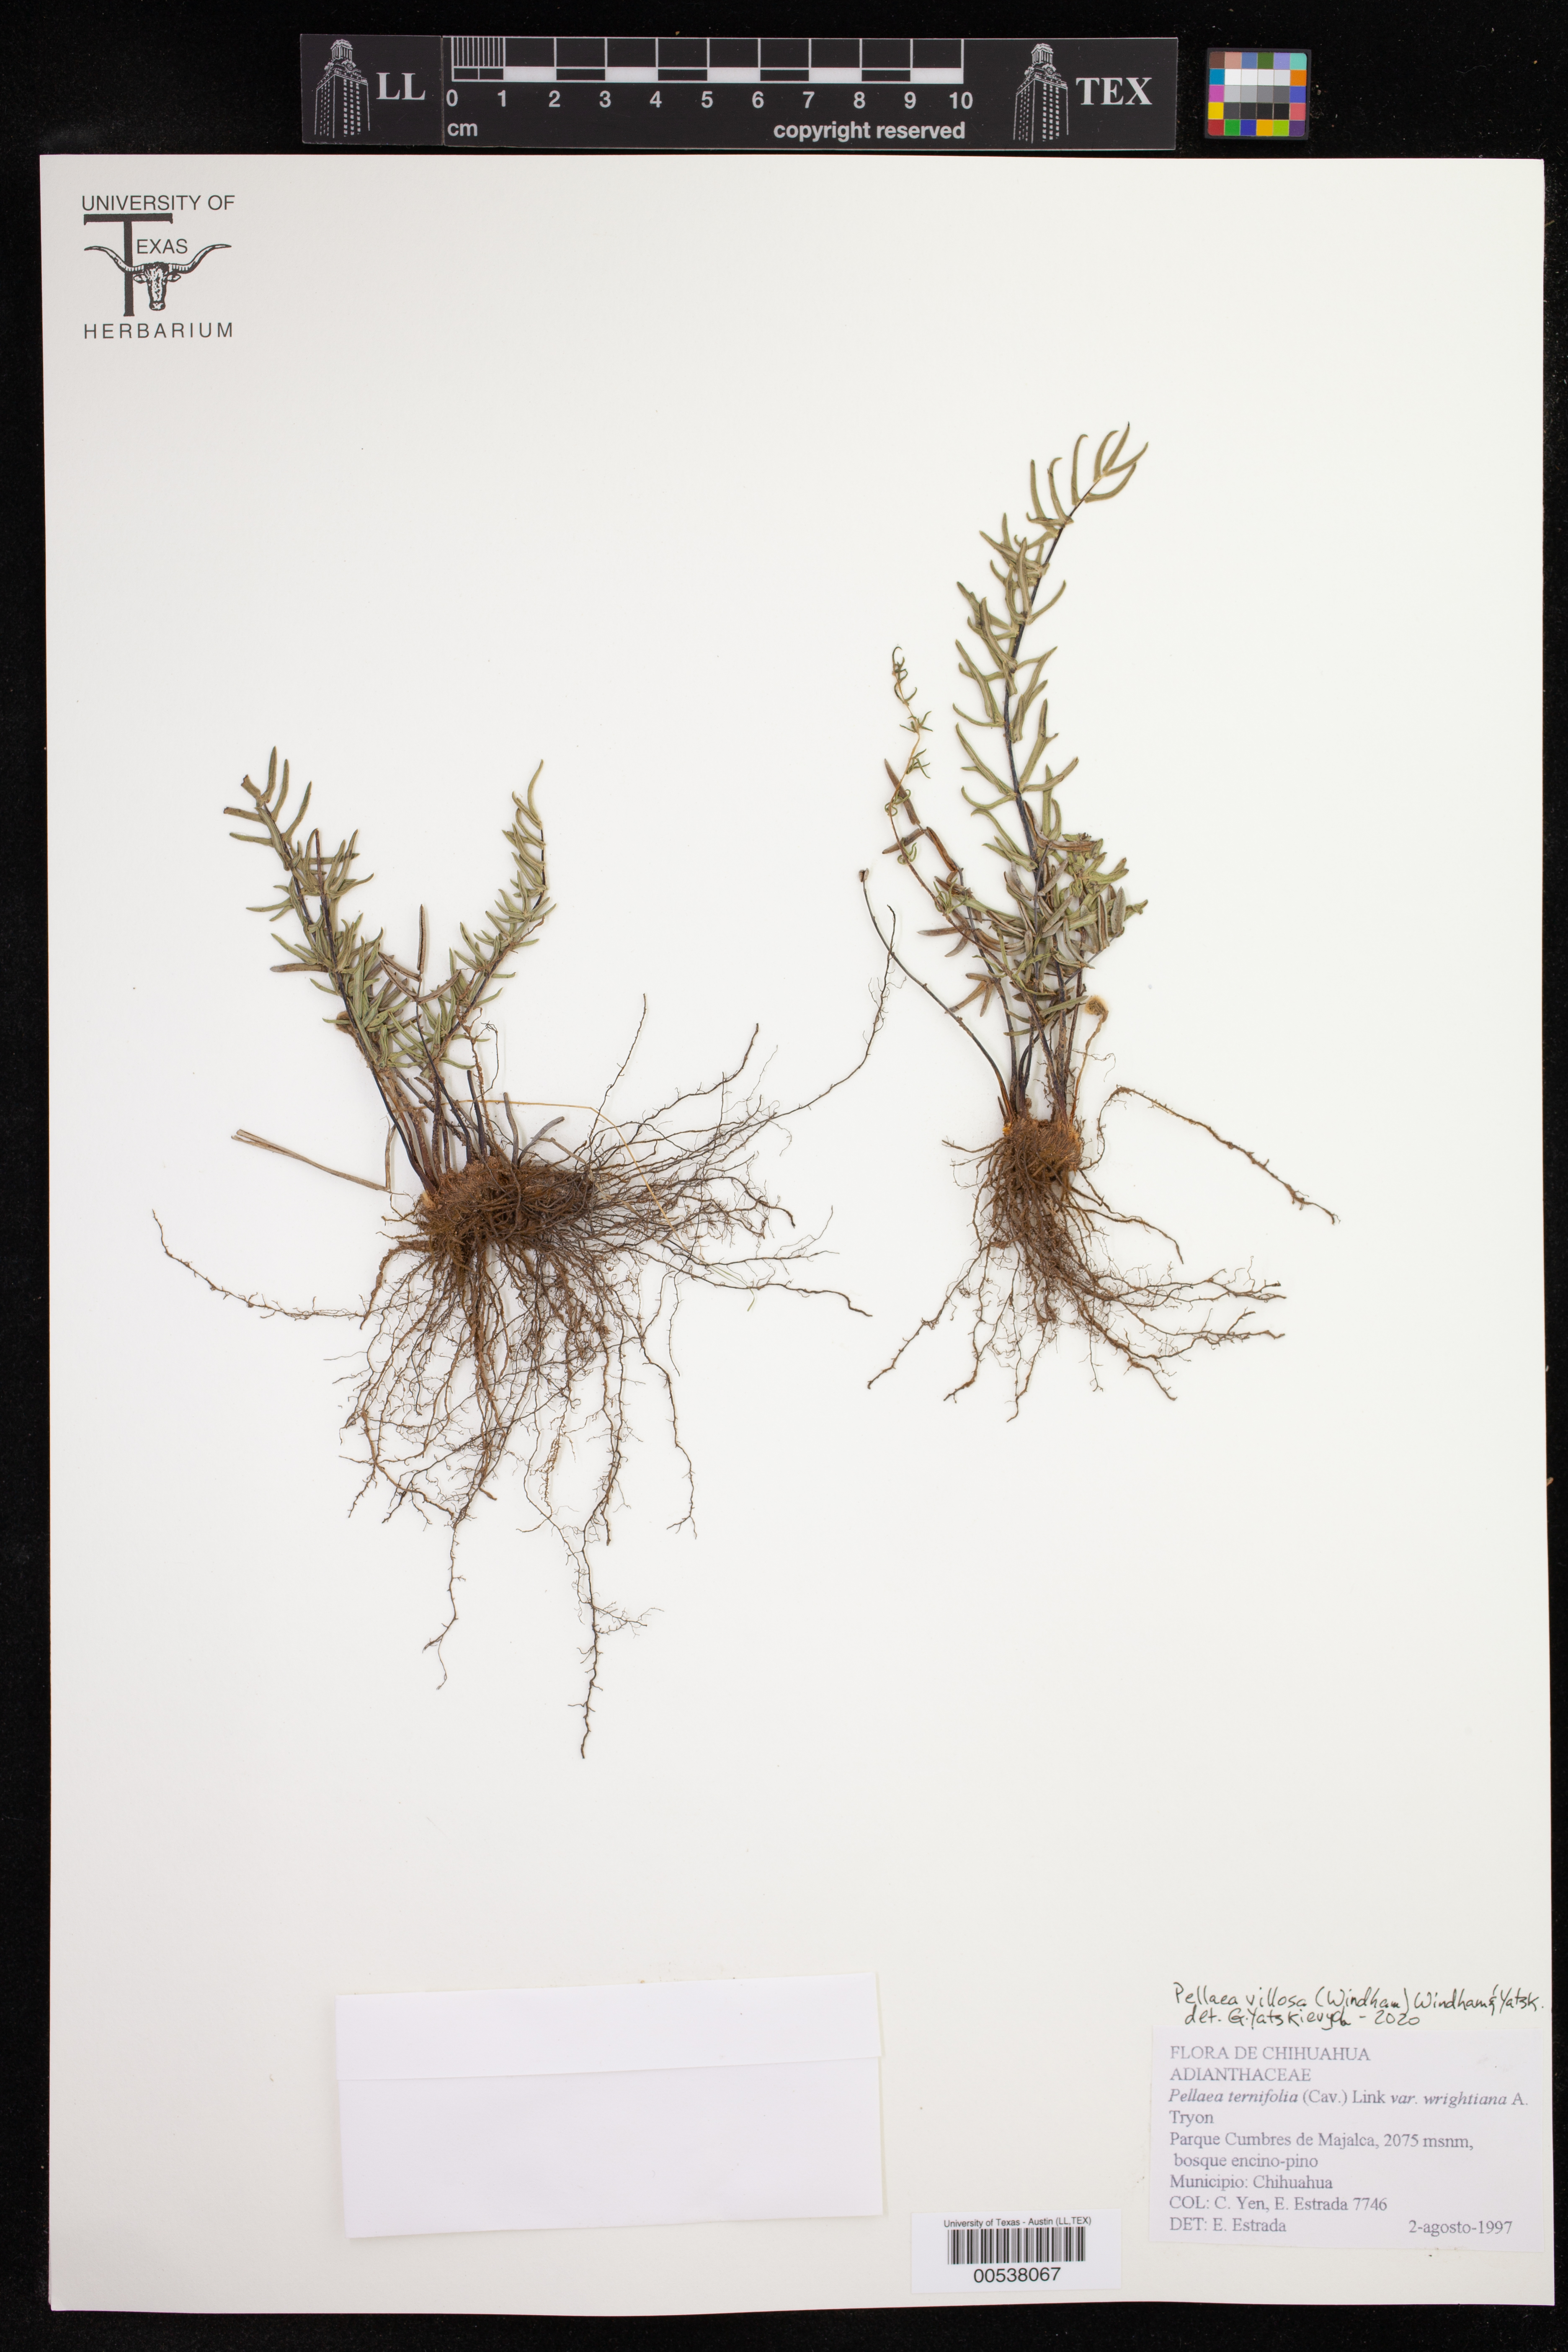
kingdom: Plantae
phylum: Tracheophyta
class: Polypodiopsida
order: Polypodiales
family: Pteridaceae
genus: Pellaea
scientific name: Pellaea villosa
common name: Villose cliffbrake
